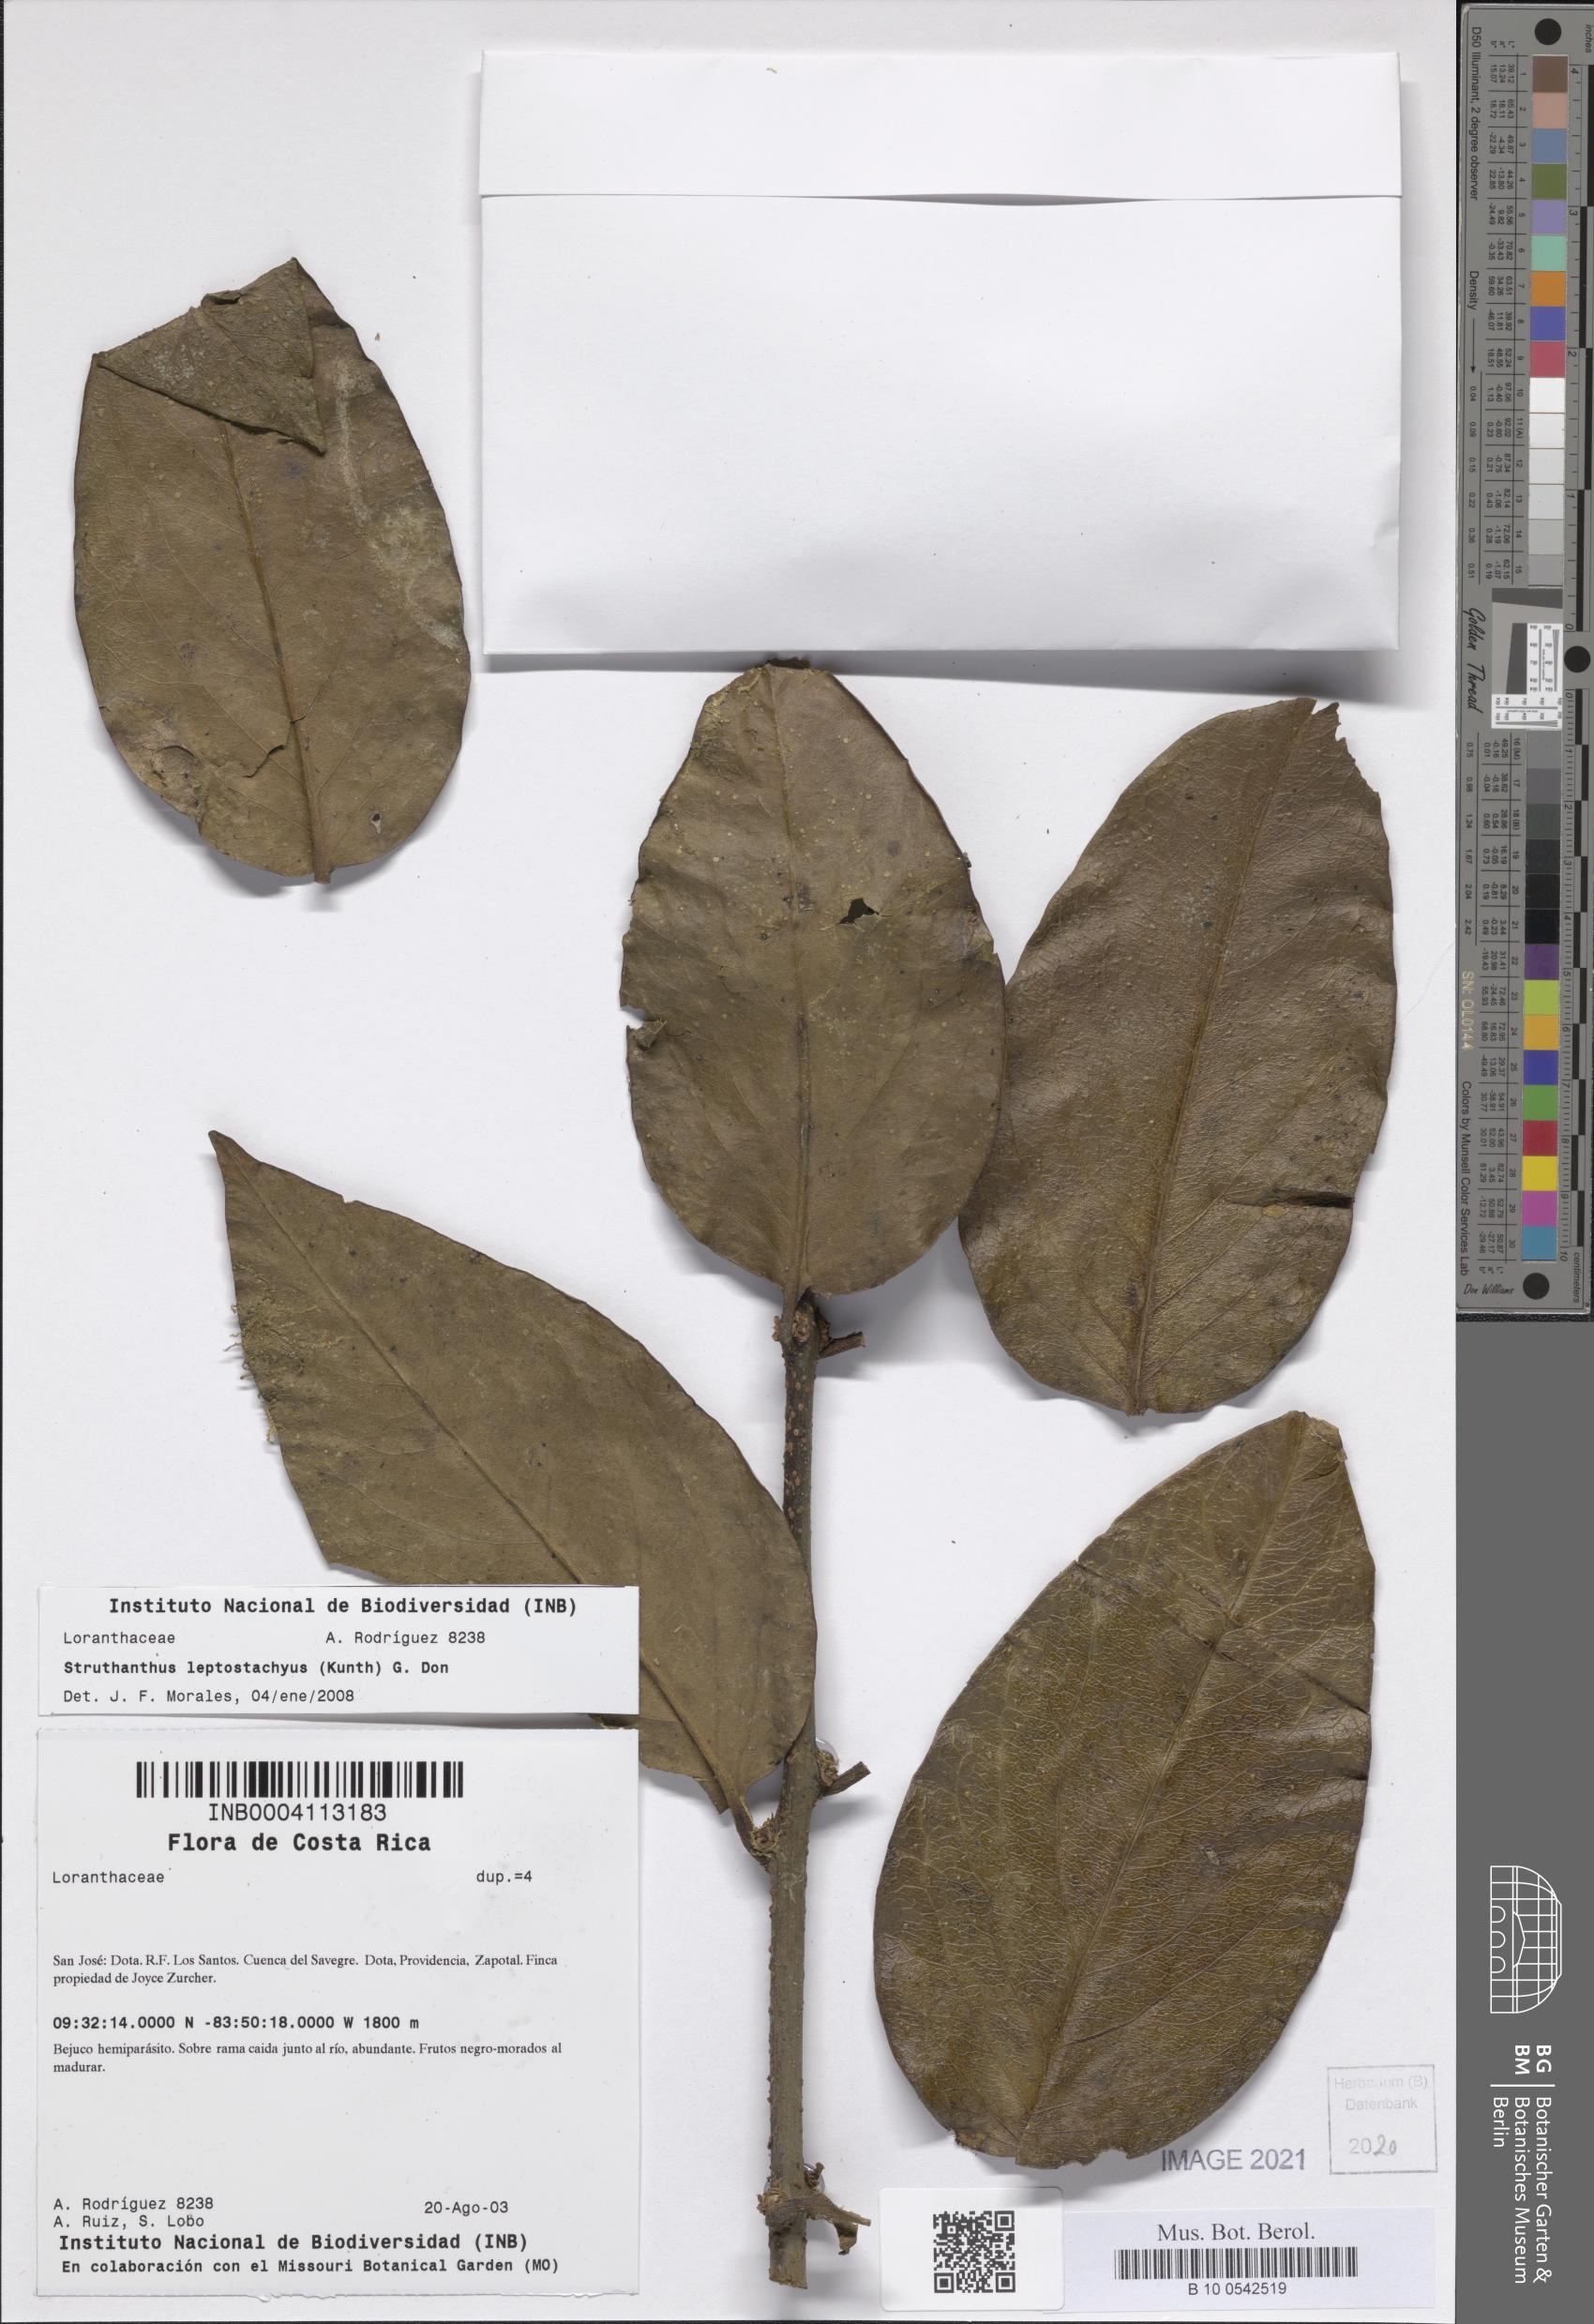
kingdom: Plantae
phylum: Tracheophyta
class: Magnoliopsida
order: Santalales
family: Loranthaceae
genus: Peristethium
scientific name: Peristethium leptostachyum
